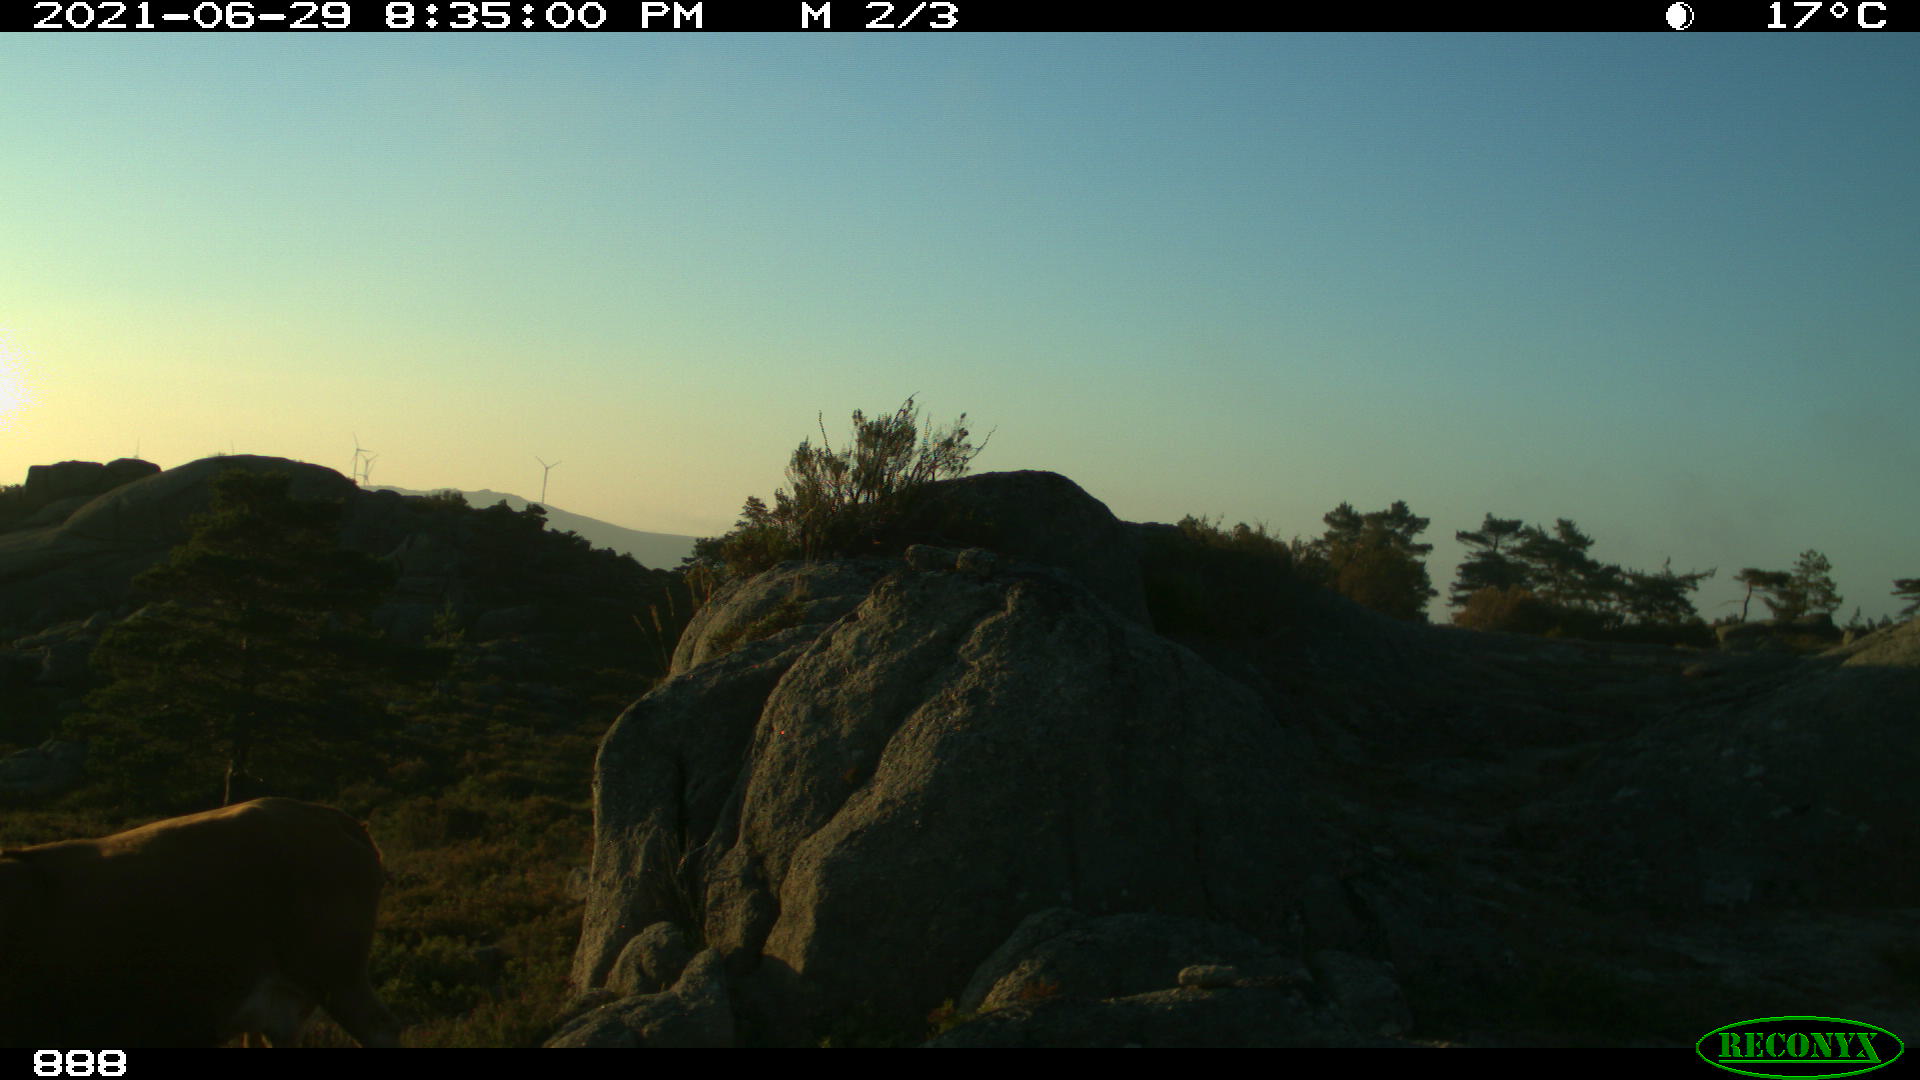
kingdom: Animalia
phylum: Chordata
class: Mammalia
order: Artiodactyla
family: Bovidae
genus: Bos
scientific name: Bos taurus
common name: Domesticated cattle
